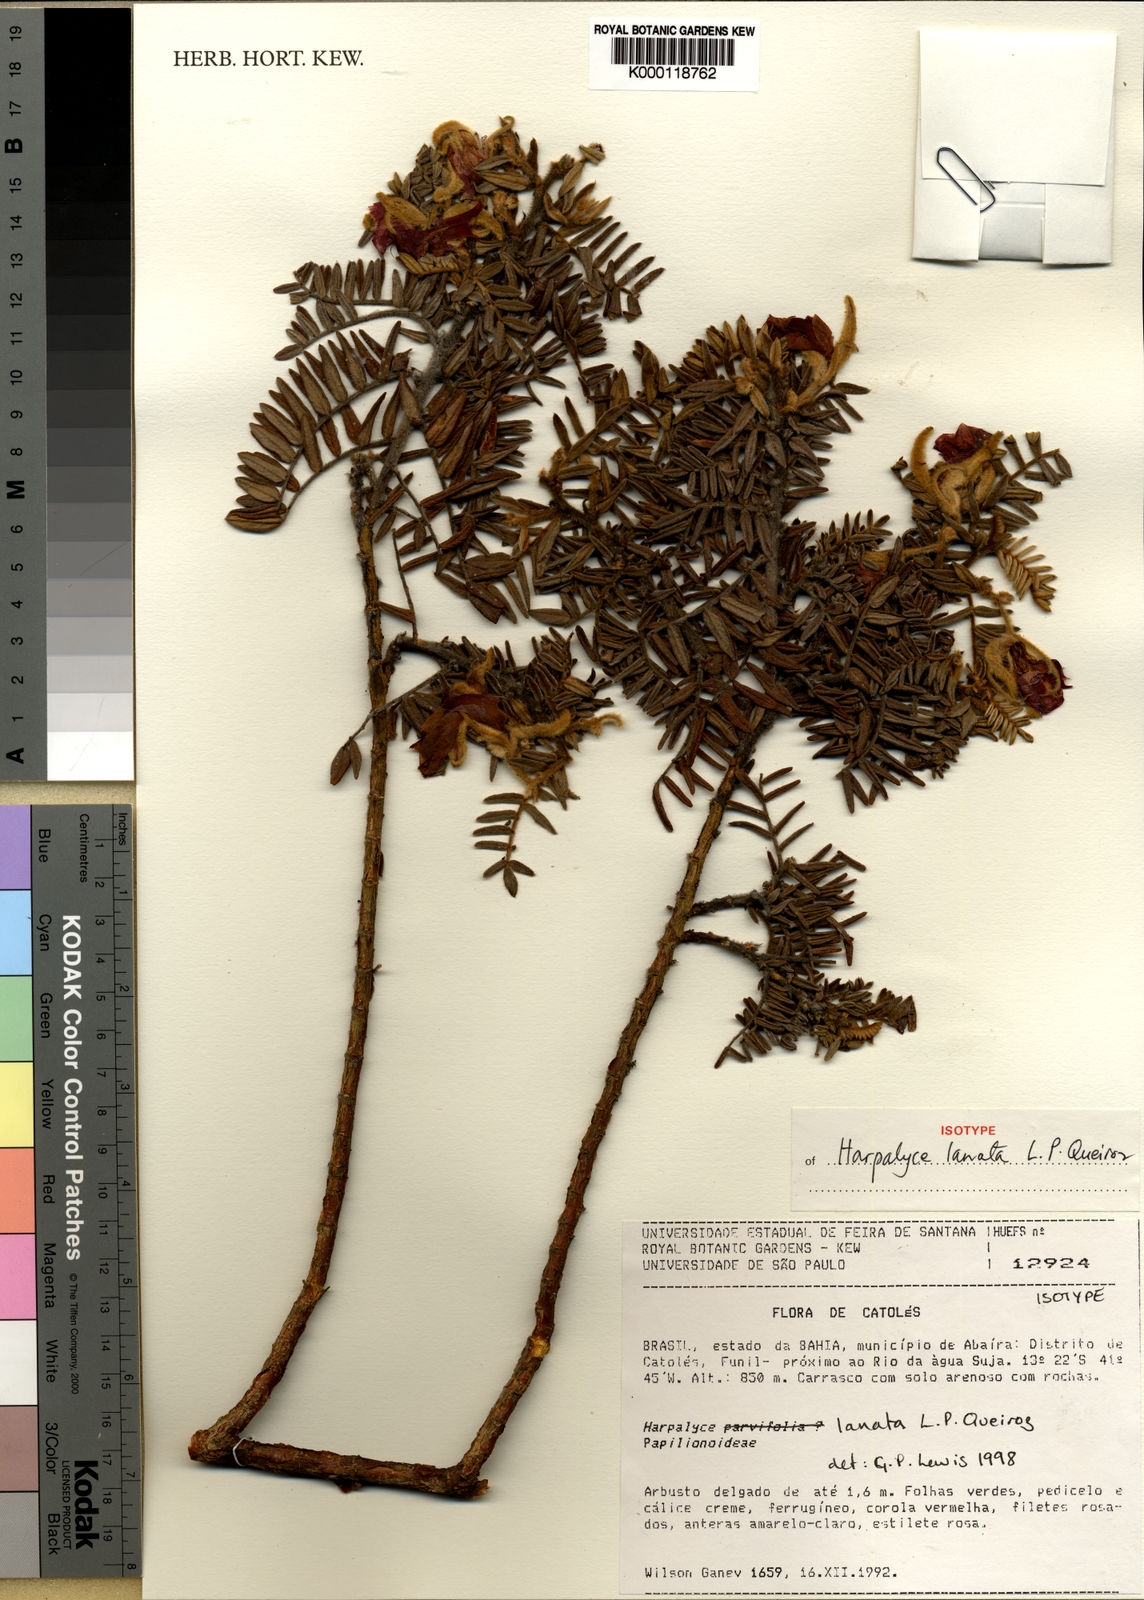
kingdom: Plantae
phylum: Tracheophyta
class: Magnoliopsida
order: Fabales
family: Fabaceae
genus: Harpalyce
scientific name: Harpalyce lanata
